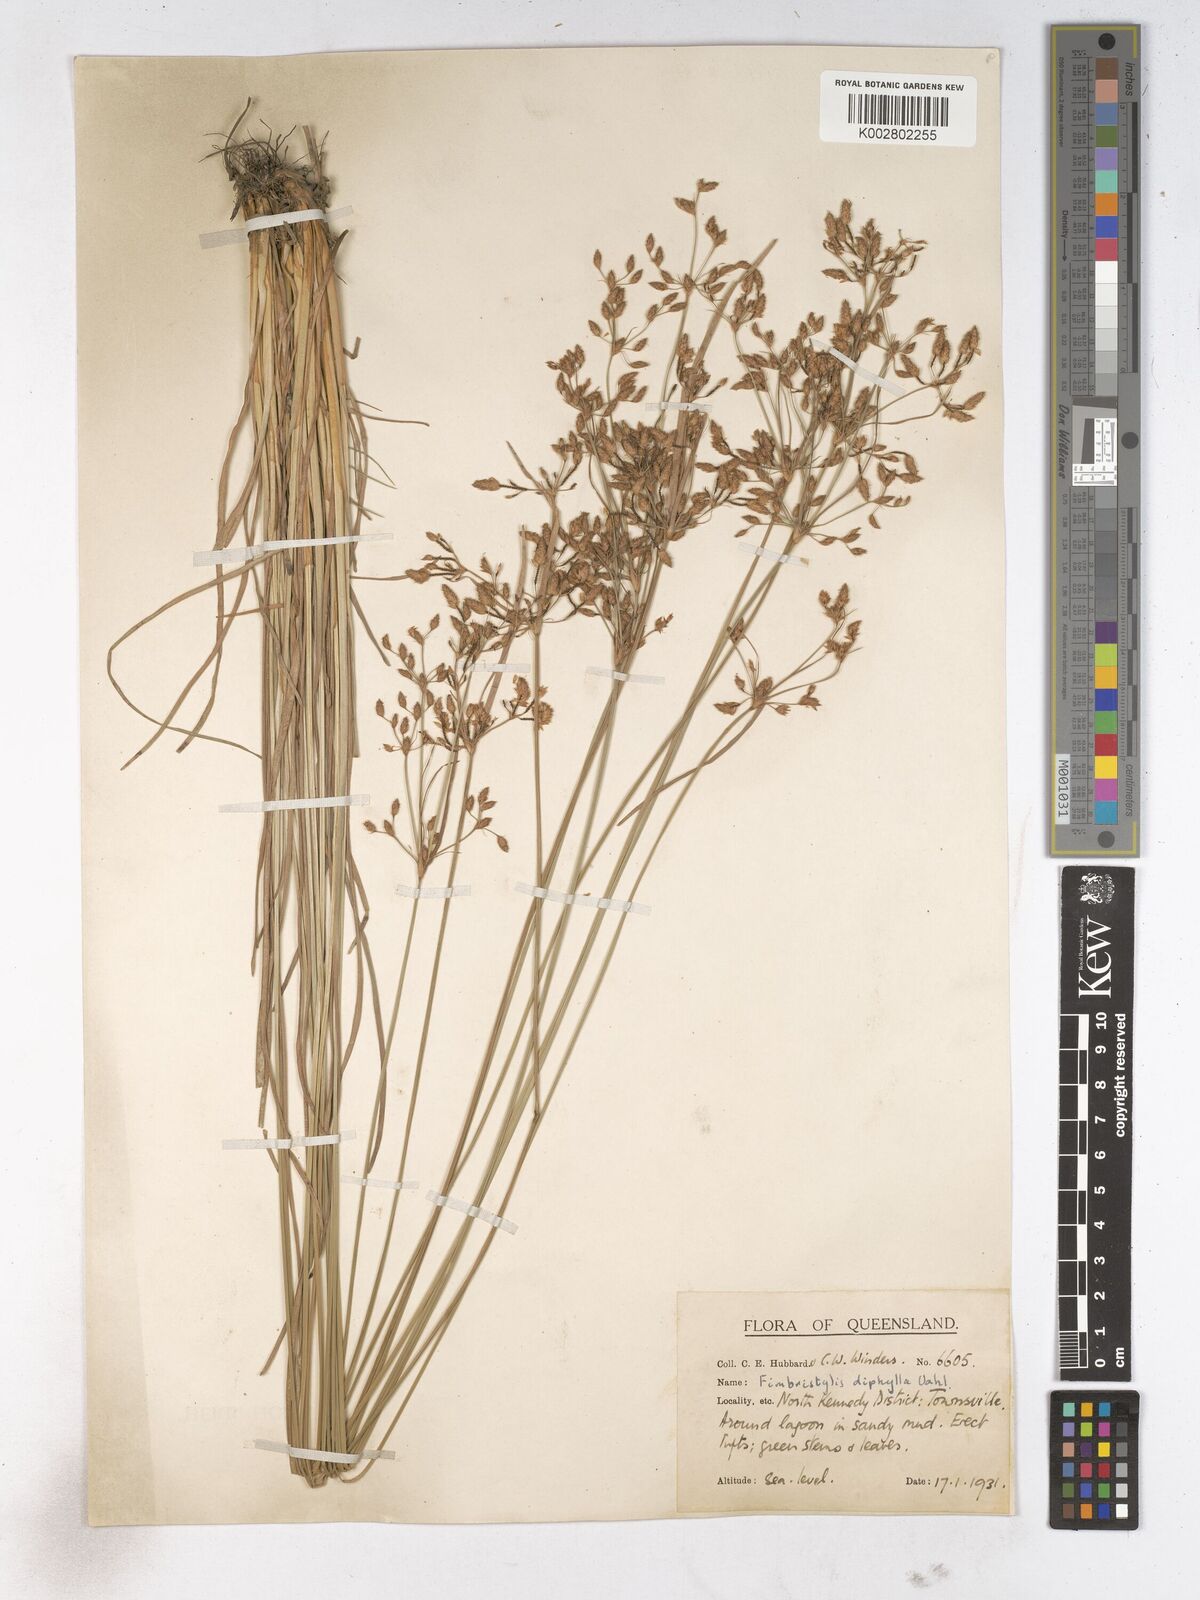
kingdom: Plantae
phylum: Tracheophyta
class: Liliopsida
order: Poales
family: Cyperaceae
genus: Fimbristylis
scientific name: Fimbristylis dichotoma
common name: Forked fimbry
